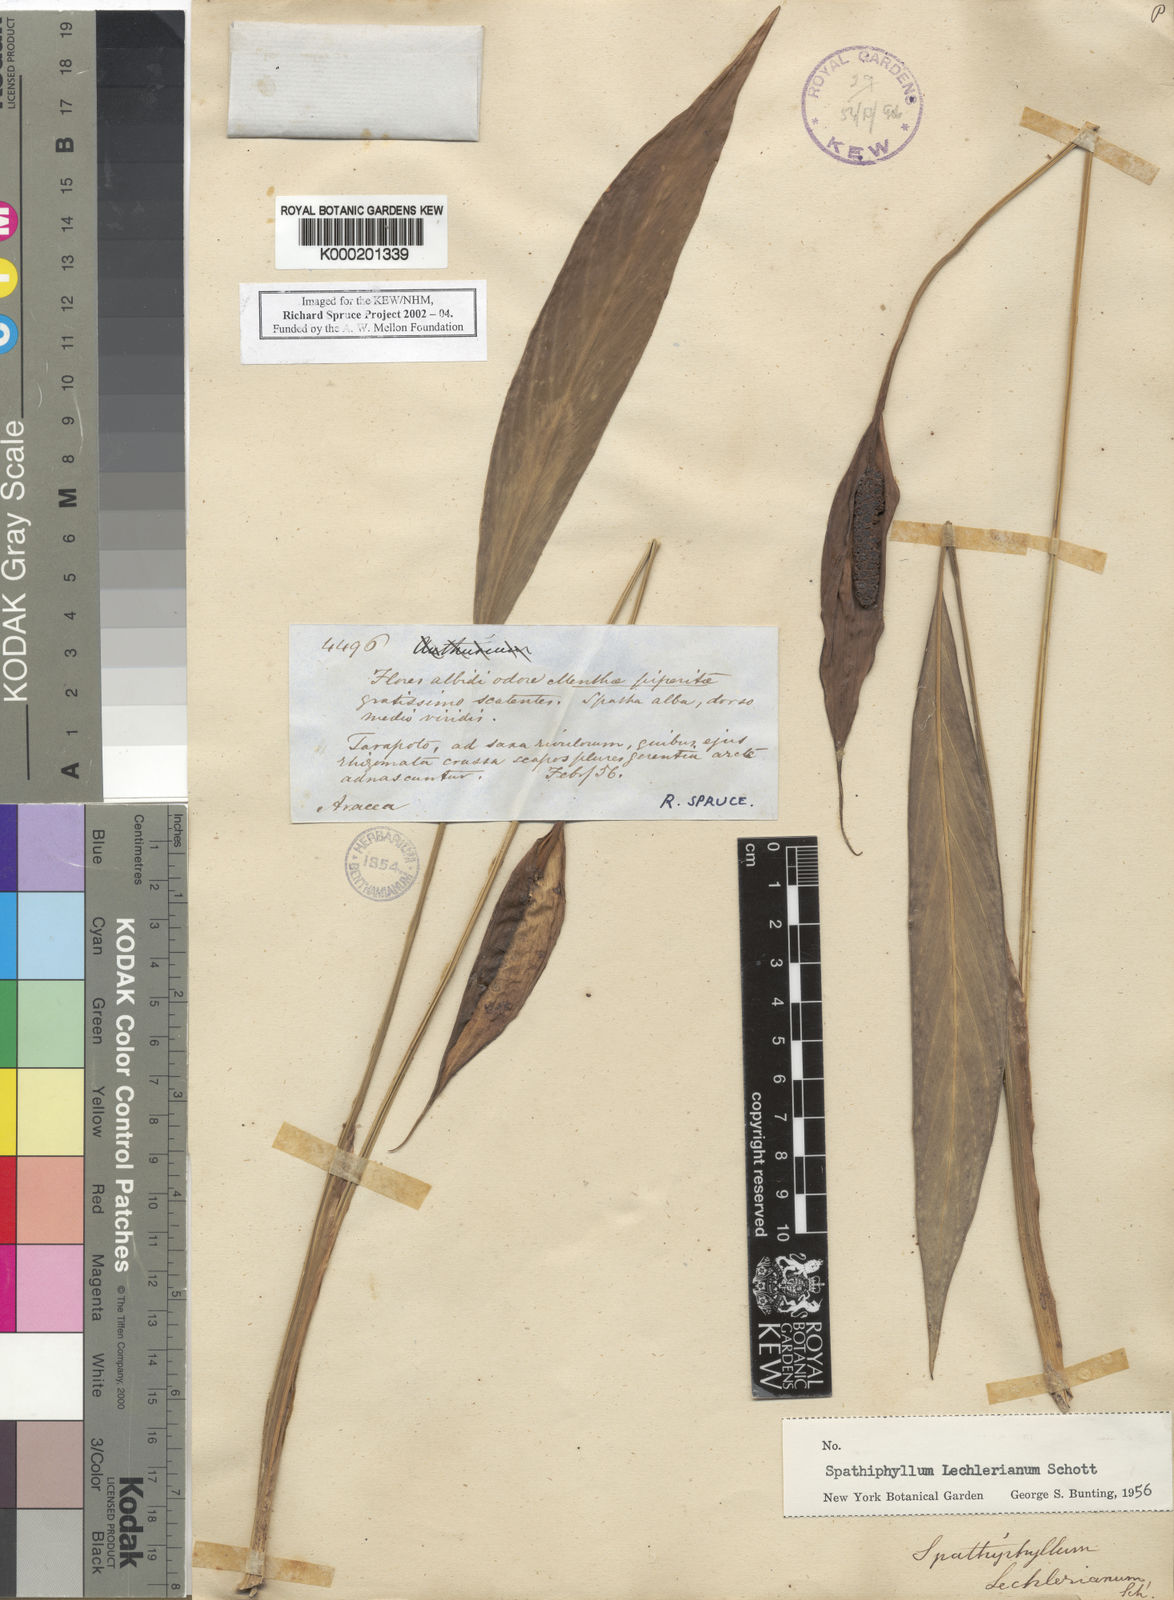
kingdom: Plantae
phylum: Tracheophyta
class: Liliopsida
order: Alismatales
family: Araceae
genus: Spathiphyllum
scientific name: Spathiphyllum lechlerianum
